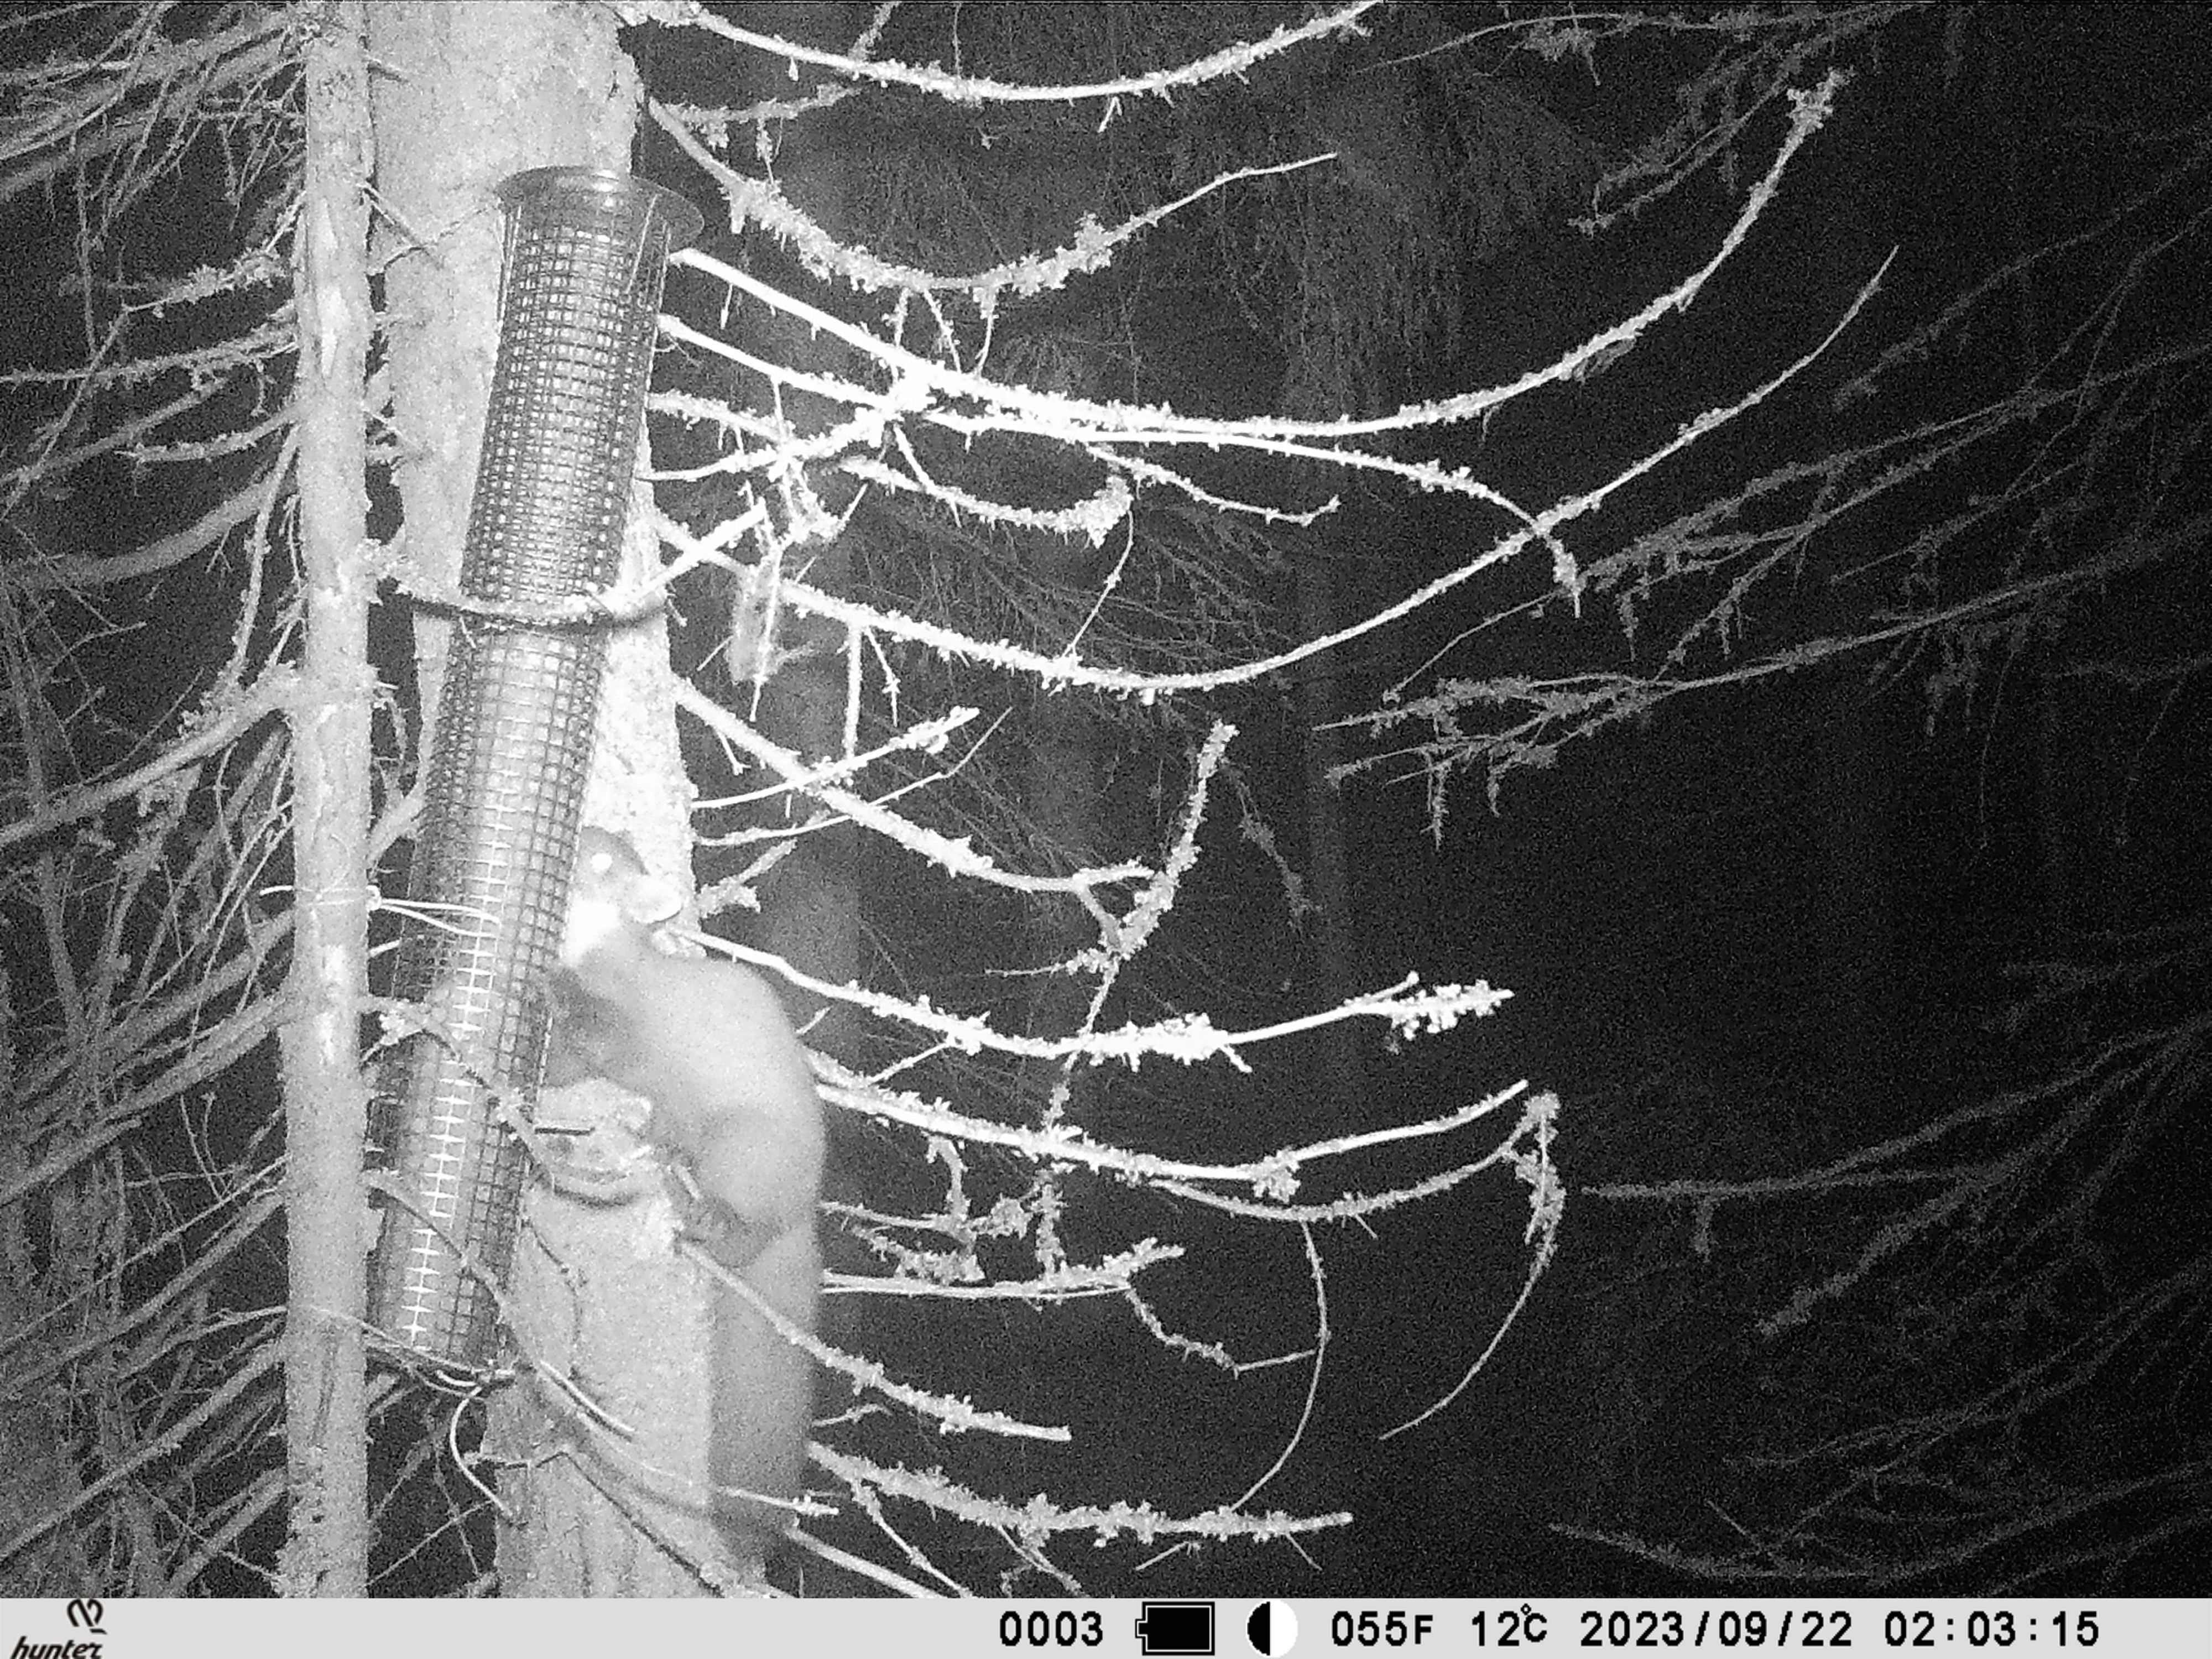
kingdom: Animalia
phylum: Chordata
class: Mammalia
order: Carnivora
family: Mustelidae
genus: Martes
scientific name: Martes martes
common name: European pine marten
